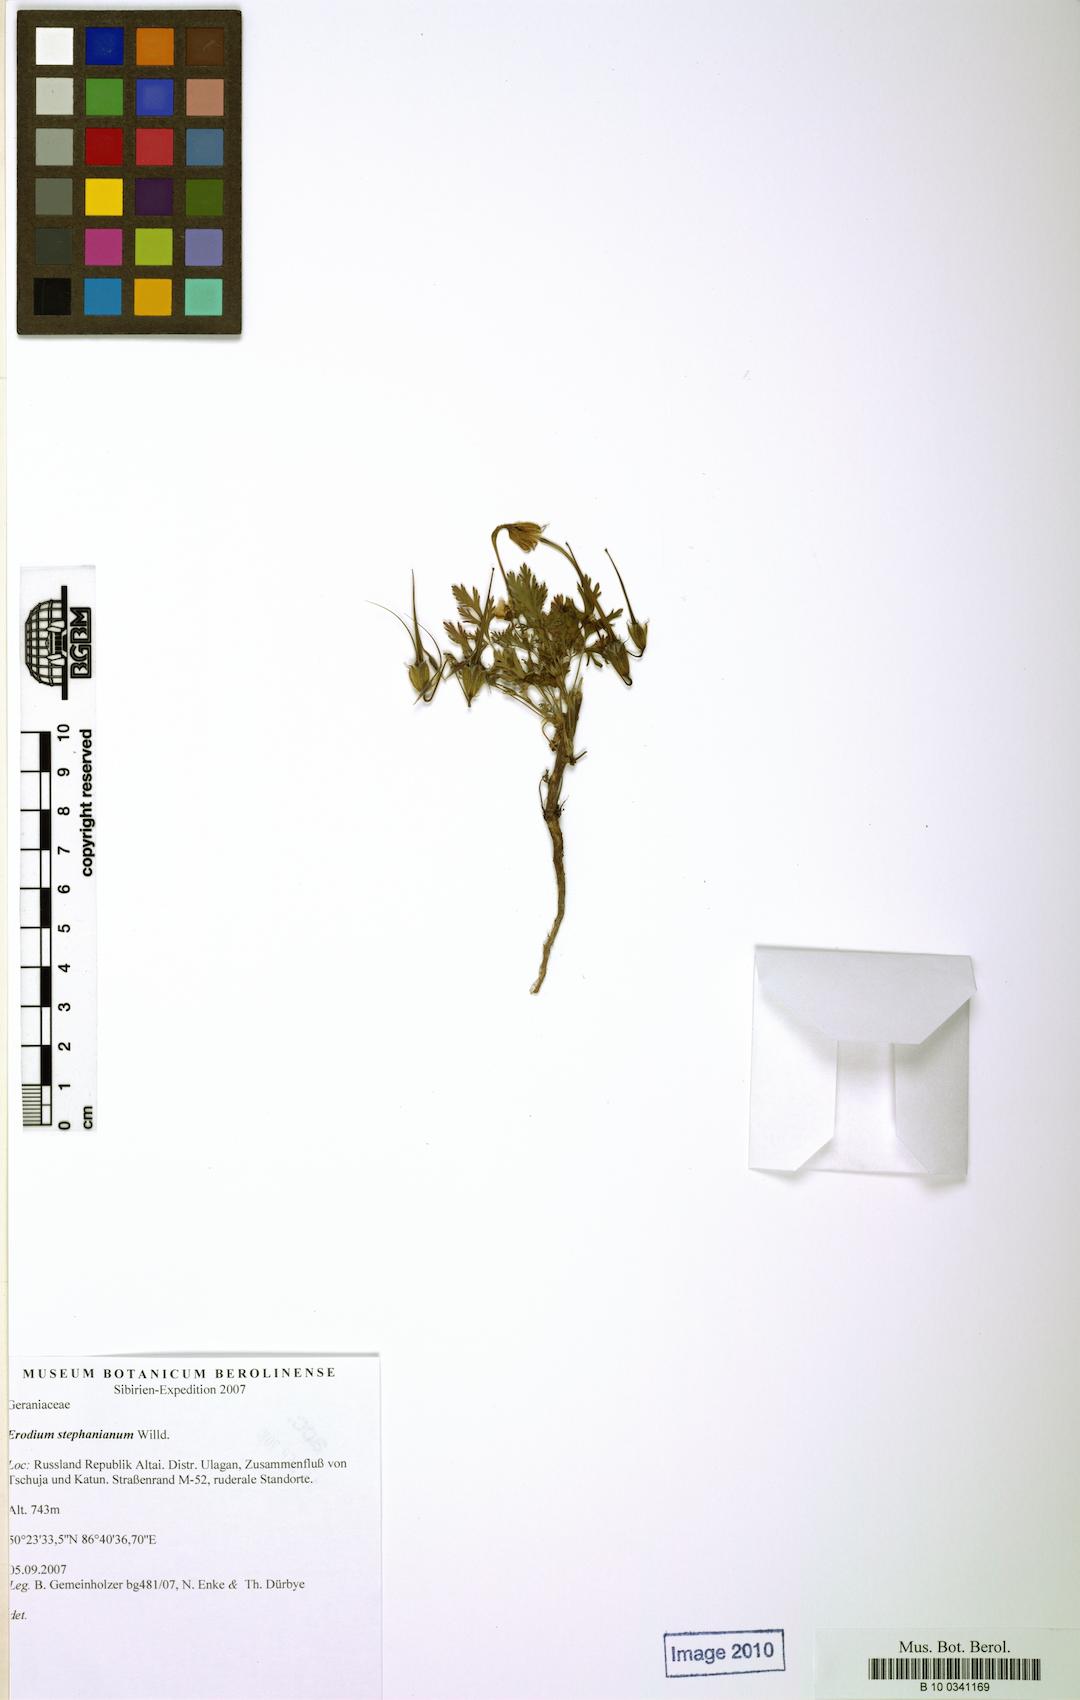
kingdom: Plantae
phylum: Tracheophyta
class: Magnoliopsida
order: Geraniales
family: Geraniaceae
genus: Erodium
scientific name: Erodium stephanianum
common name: Stephen's stork's bill
